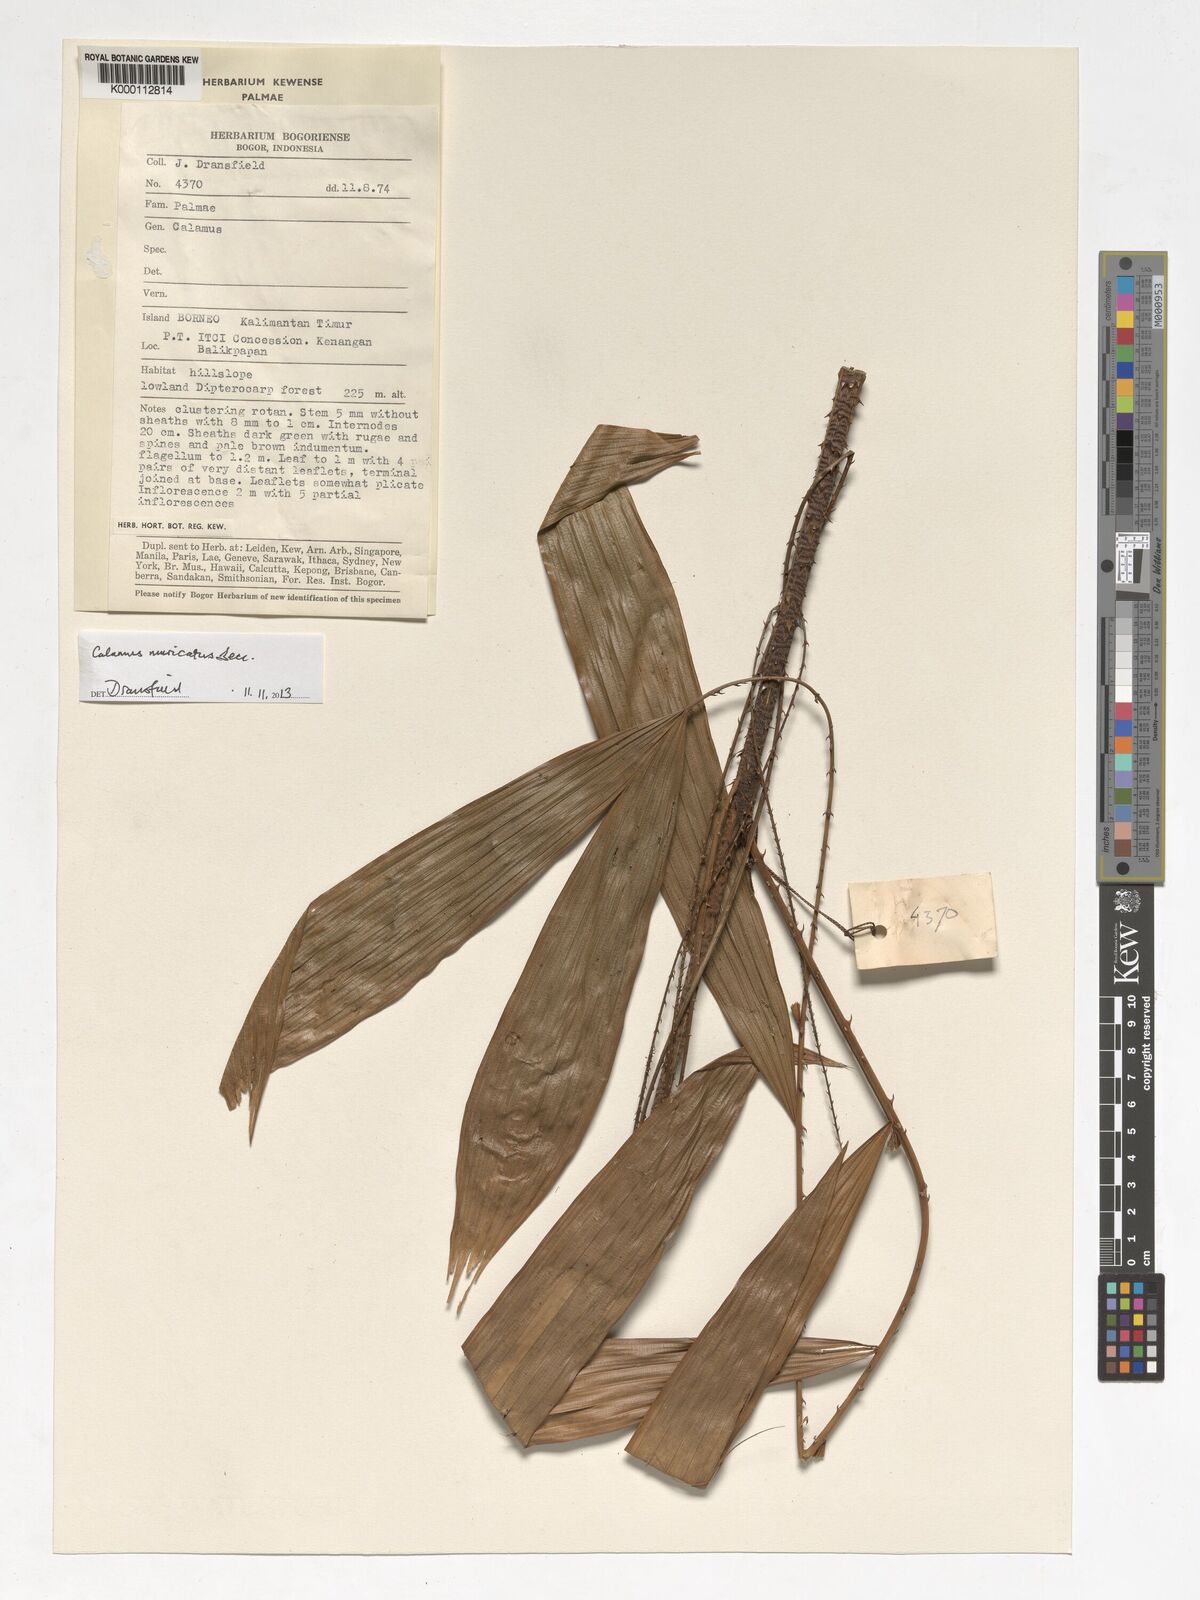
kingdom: Plantae
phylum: Tracheophyta
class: Liliopsida
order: Arecales
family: Arecaceae
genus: Calamus
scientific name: Calamus
